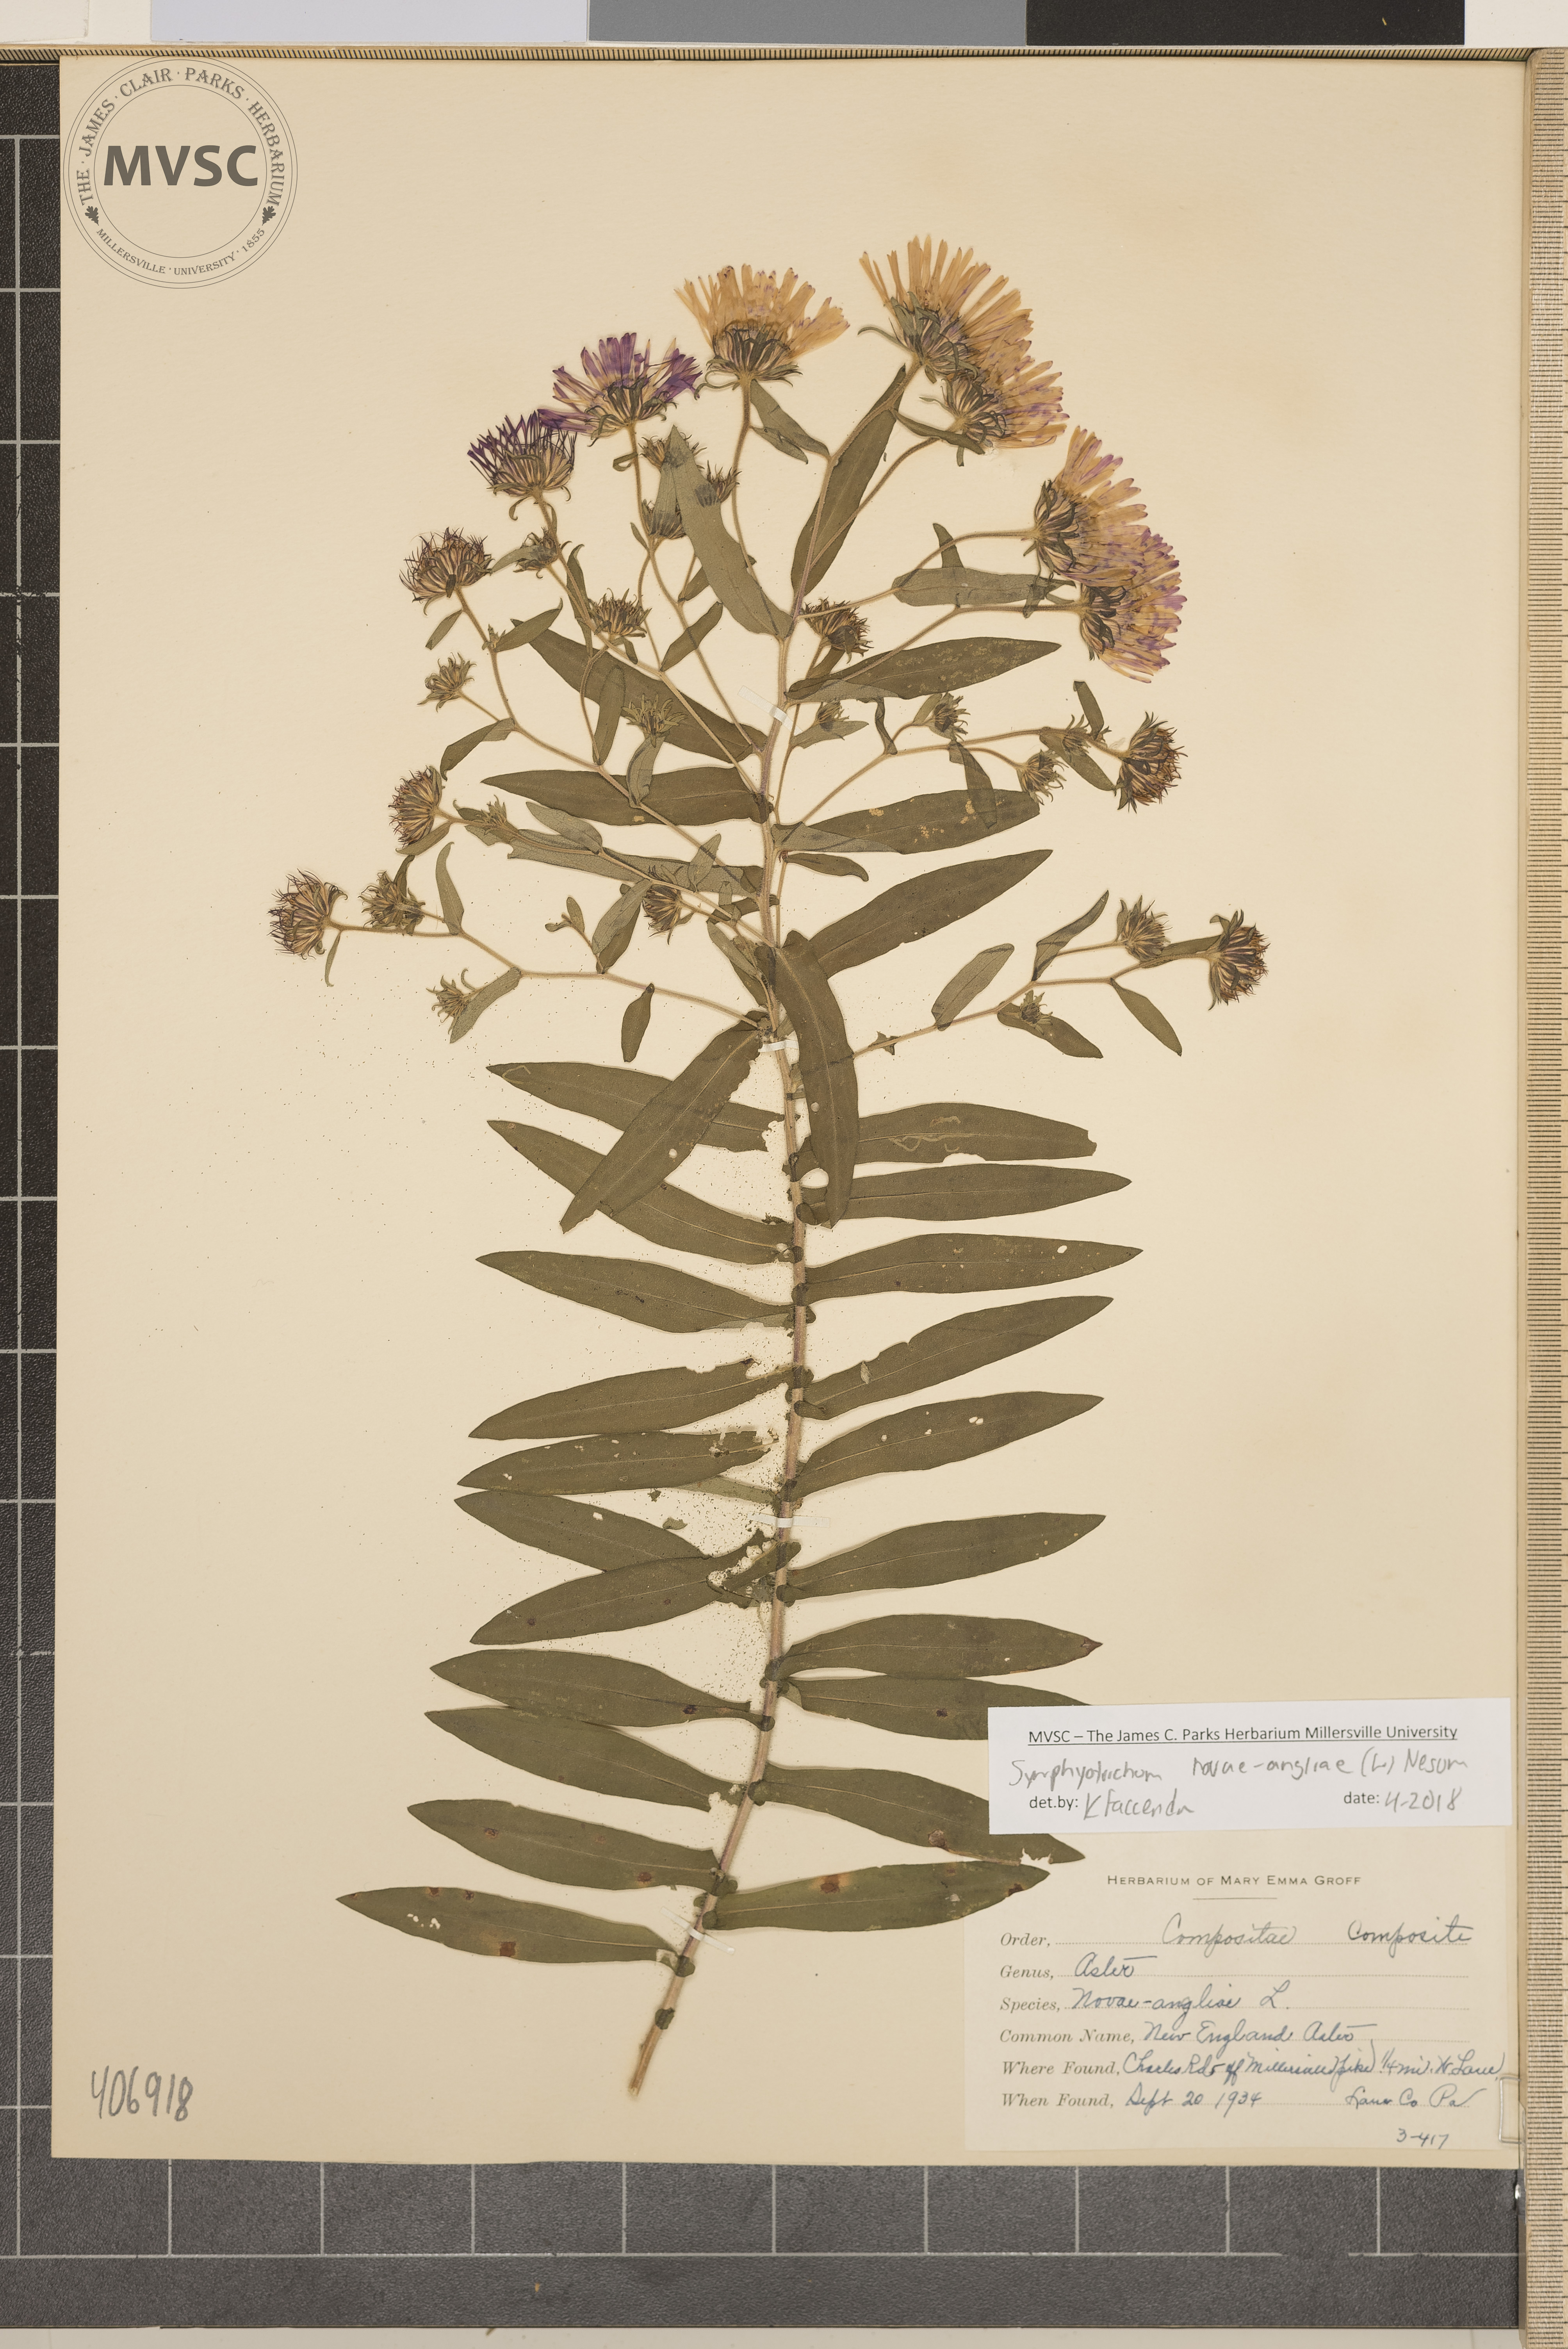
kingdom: Plantae
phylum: Tracheophyta
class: Magnoliopsida
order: Asterales
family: Asteraceae
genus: Symphyotrichum
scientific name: Symphyotrichum novae-angliae
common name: New England Aster
